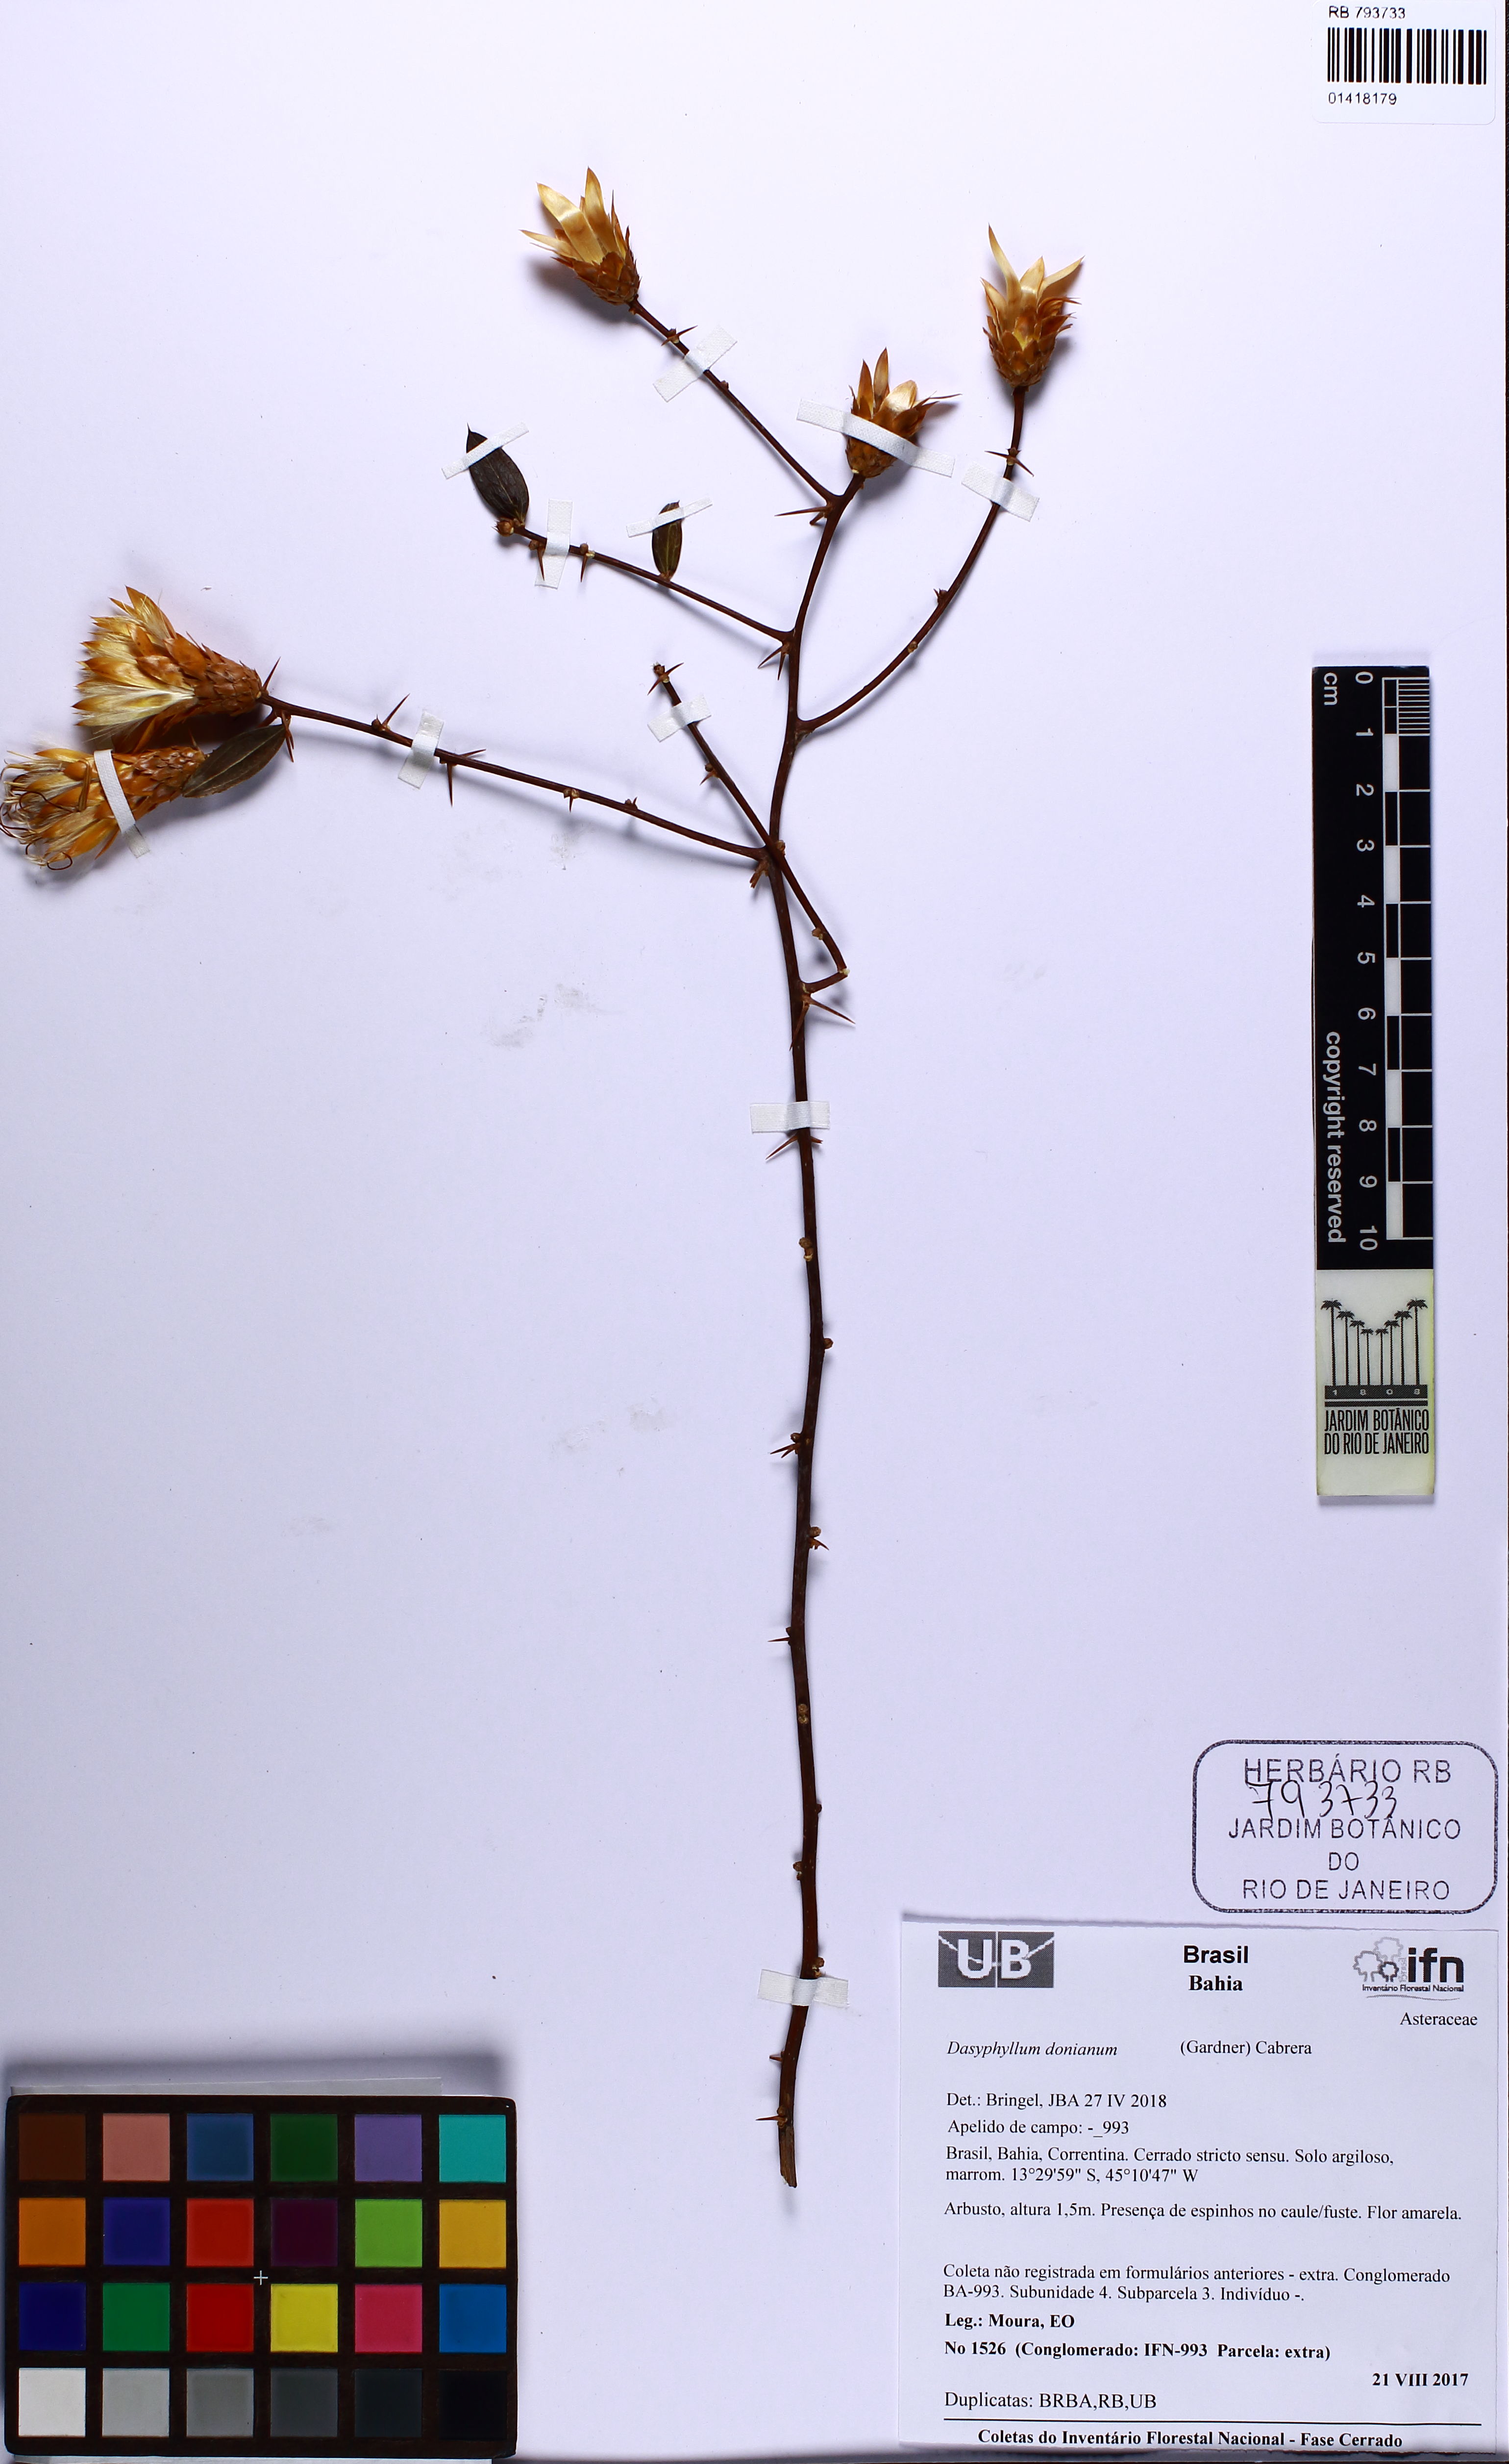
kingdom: Plantae
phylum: Tracheophyta
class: Magnoliopsida
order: Asterales
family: Asteraceae
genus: Dasyphyllum
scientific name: Dasyphyllum donianum
